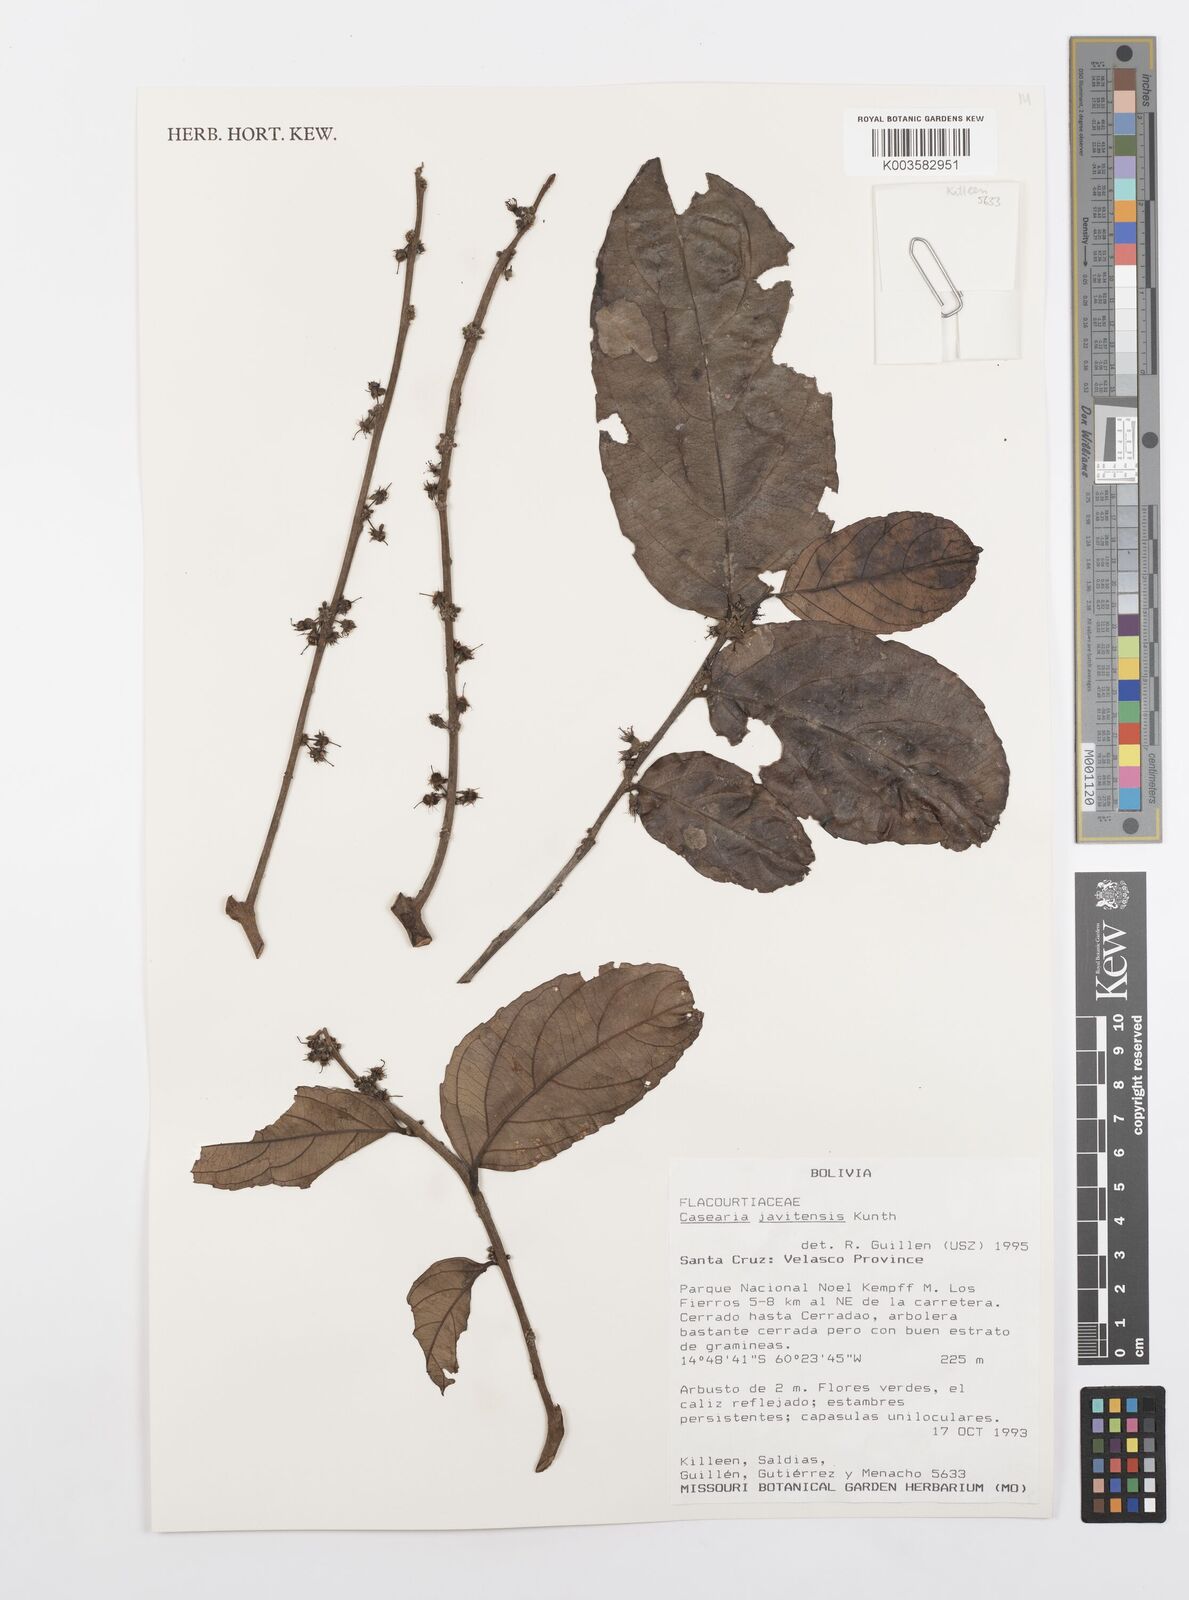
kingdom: Plantae
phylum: Tracheophyta
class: Magnoliopsida
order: Malpighiales
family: Salicaceae
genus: Piparea
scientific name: Piparea multiflora
